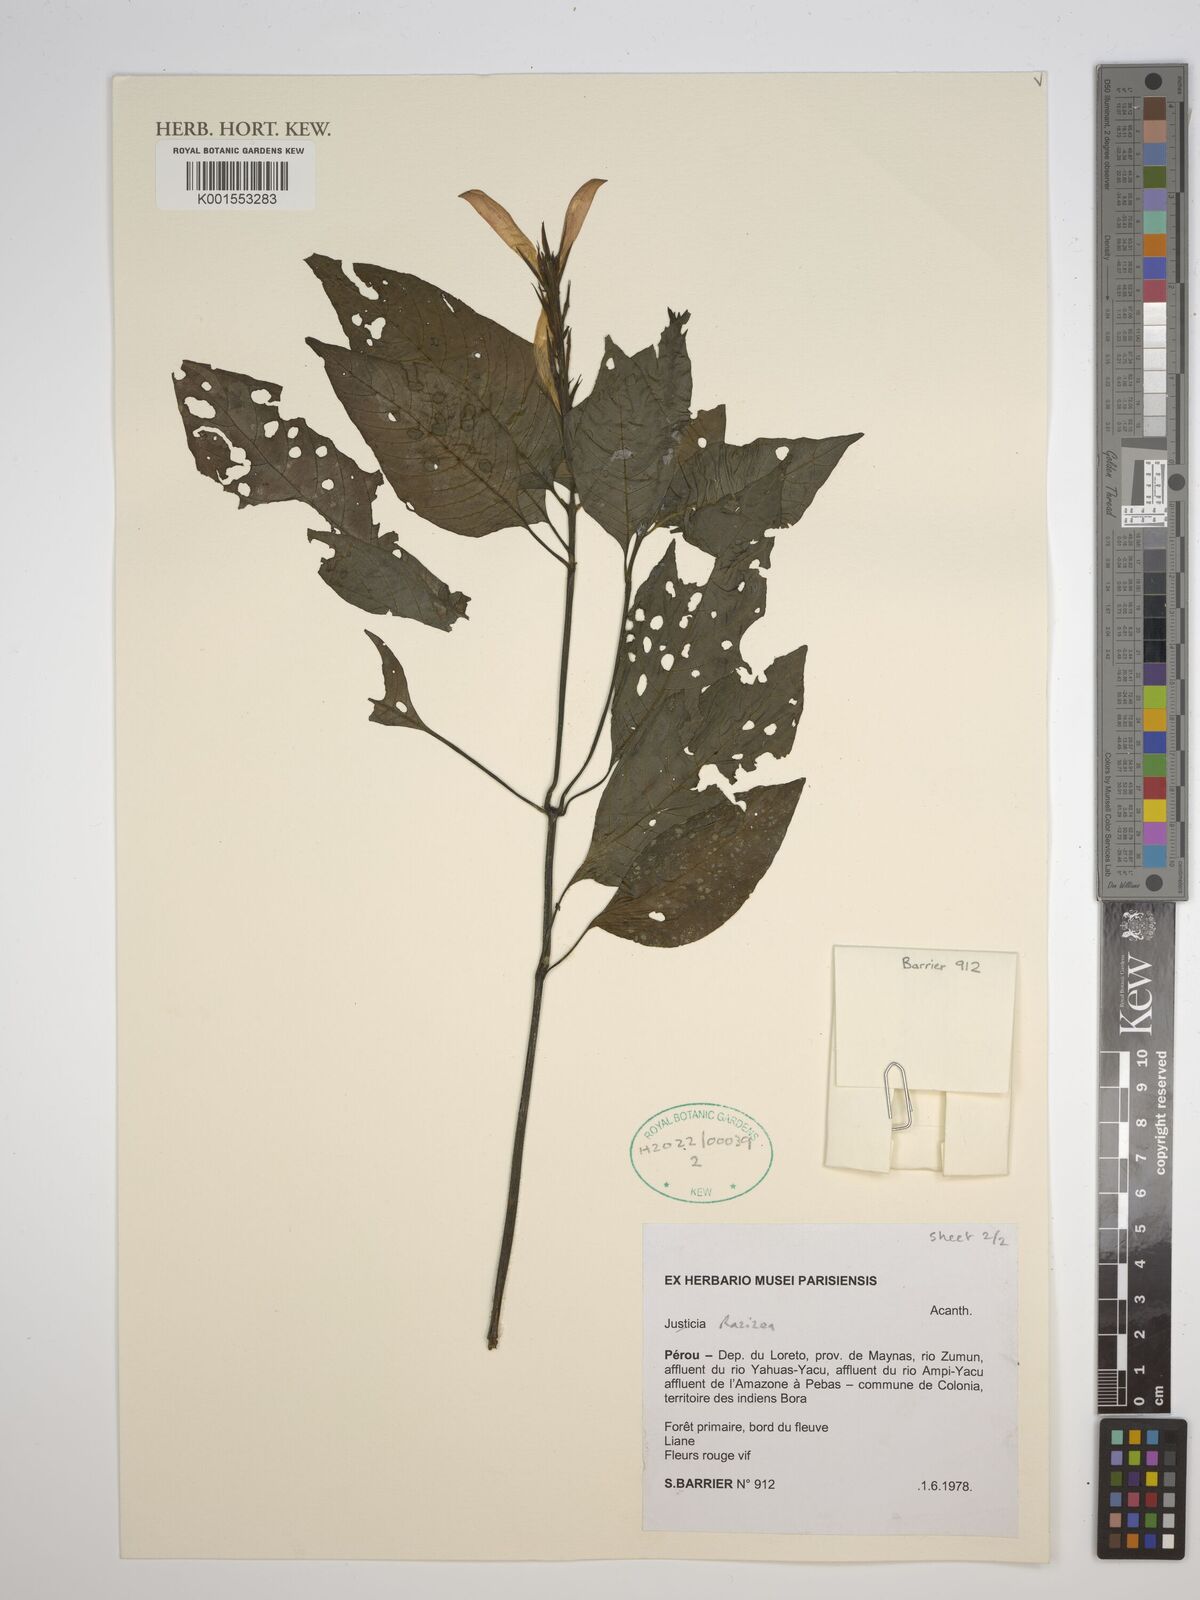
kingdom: Plantae
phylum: Tracheophyta
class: Magnoliopsida
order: Lamiales
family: Acanthaceae
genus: Stenostephanus
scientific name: Stenostephanus
